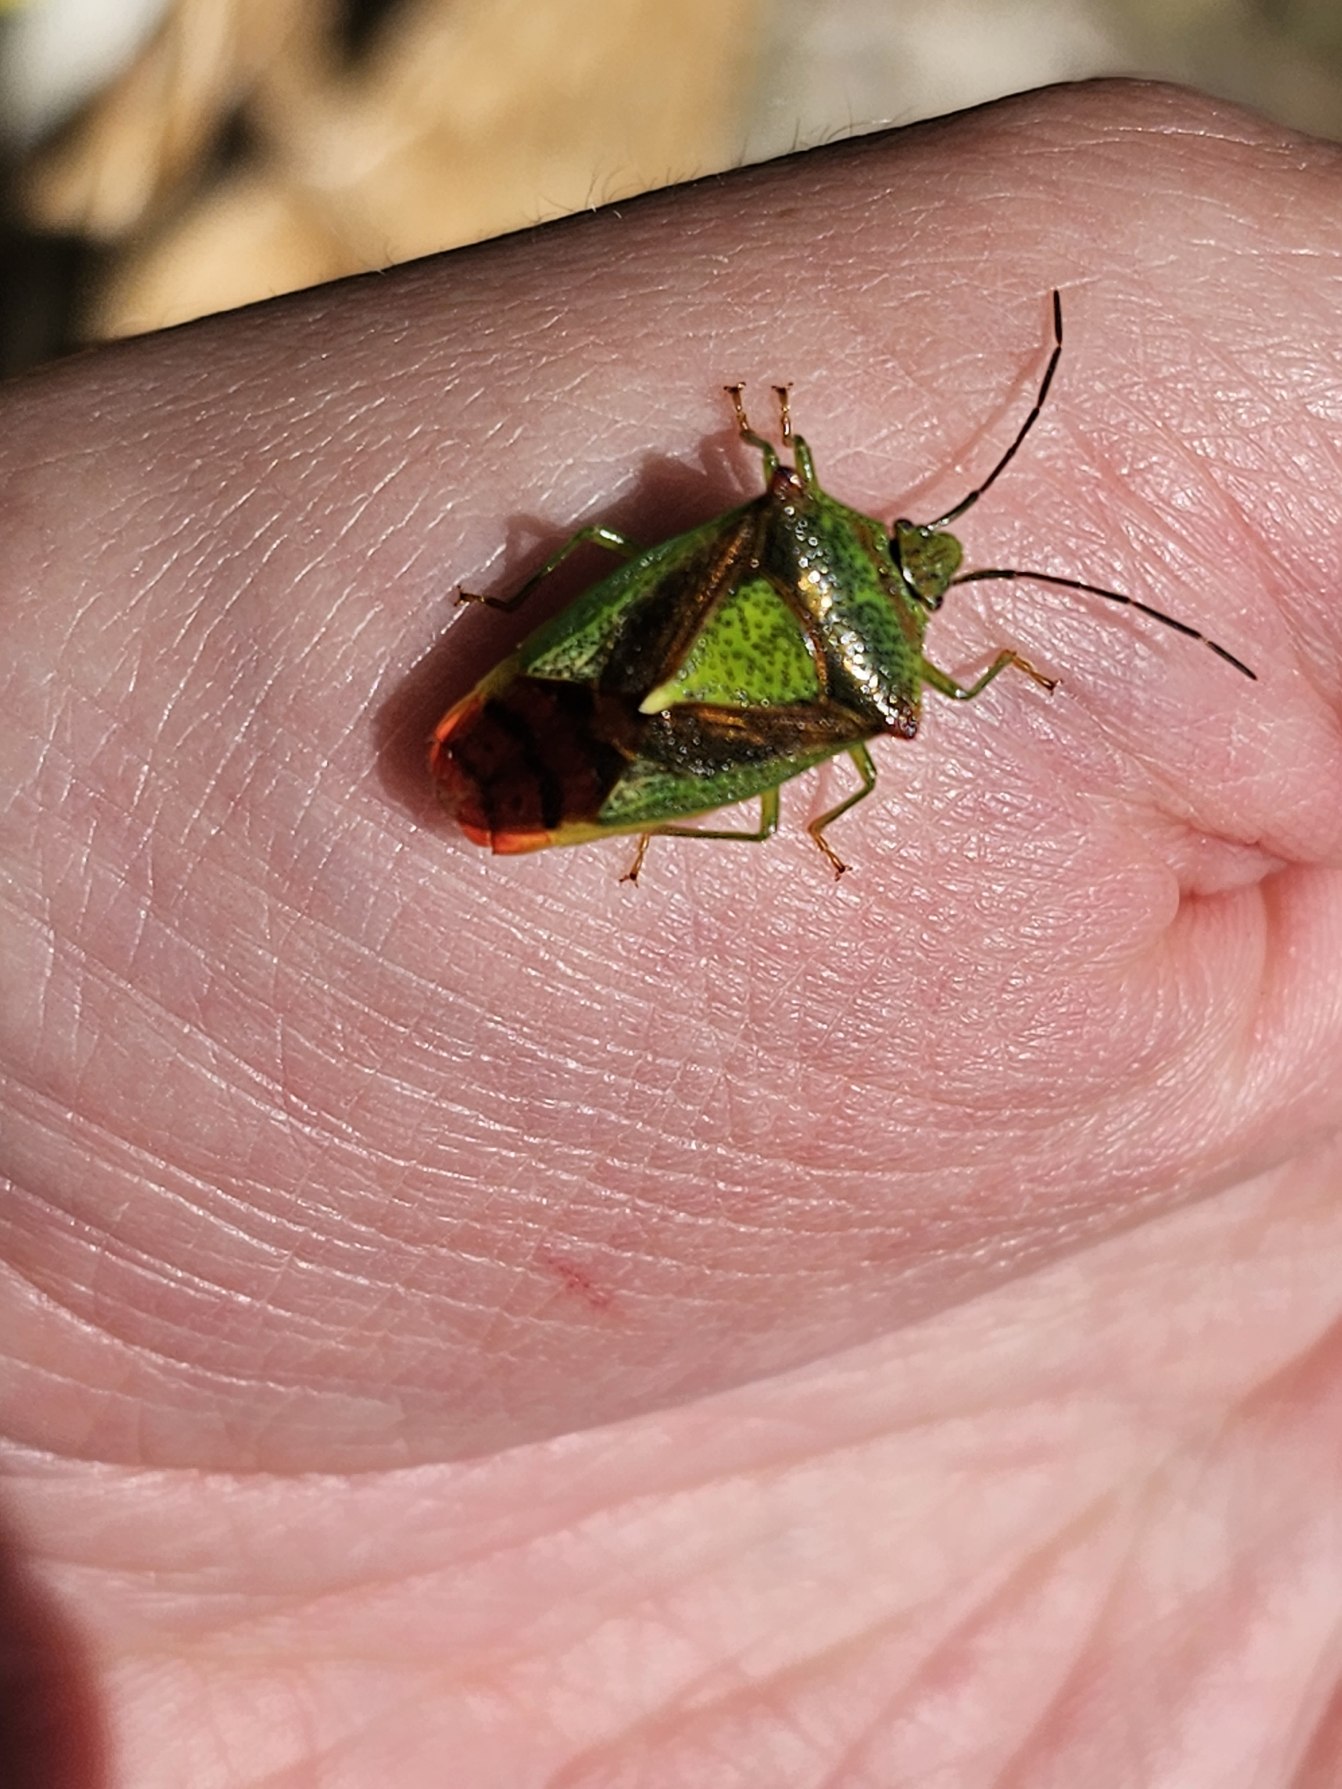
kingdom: Animalia
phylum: Arthropoda
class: Insecta
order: Hemiptera
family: Acanthosomatidae
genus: Acanthosoma
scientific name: Acanthosoma haemorrhoidale
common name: Stor løvtæge
